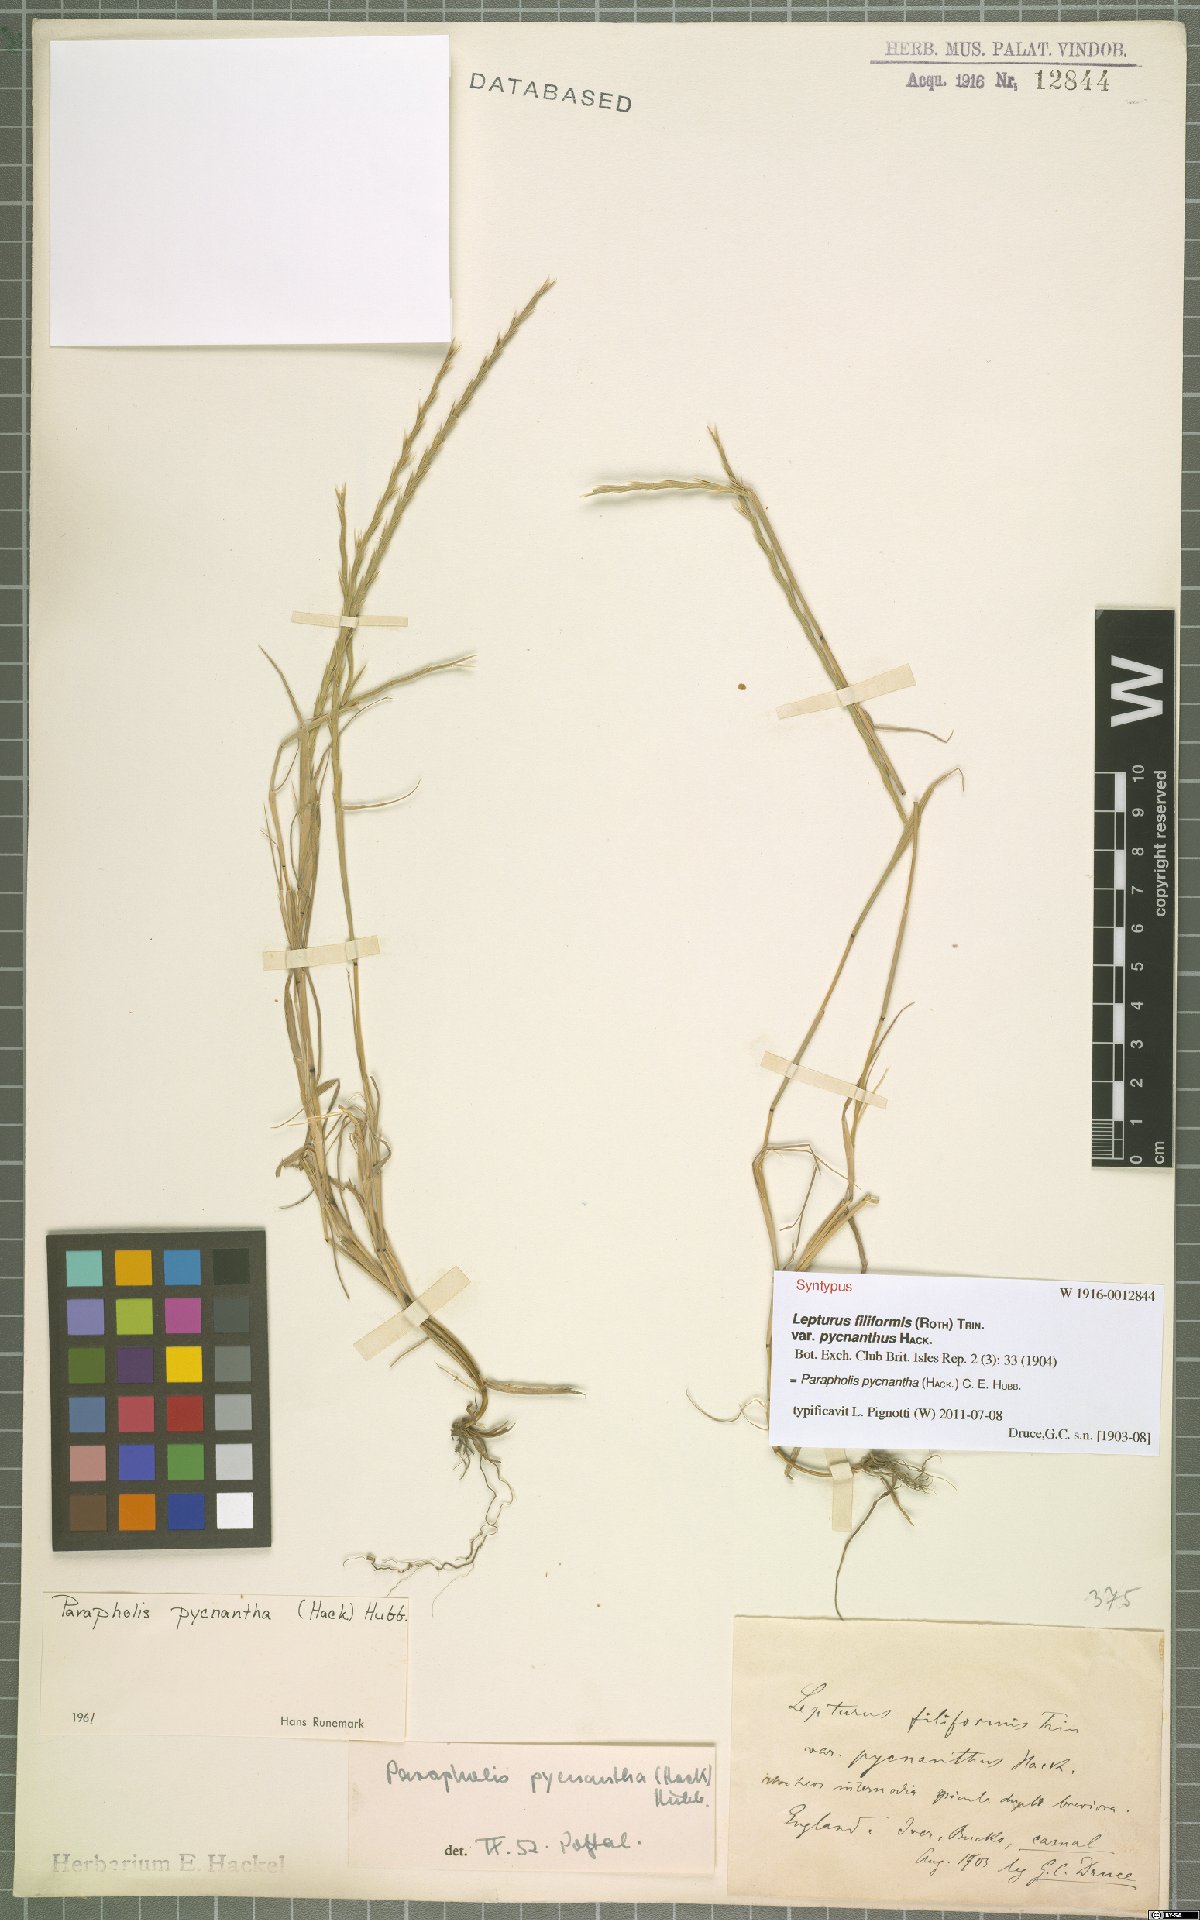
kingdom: Plantae
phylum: Tracheophyta
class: Liliopsida
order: Poales
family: Poaceae
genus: Parapholis
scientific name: Parapholis pycnantha
